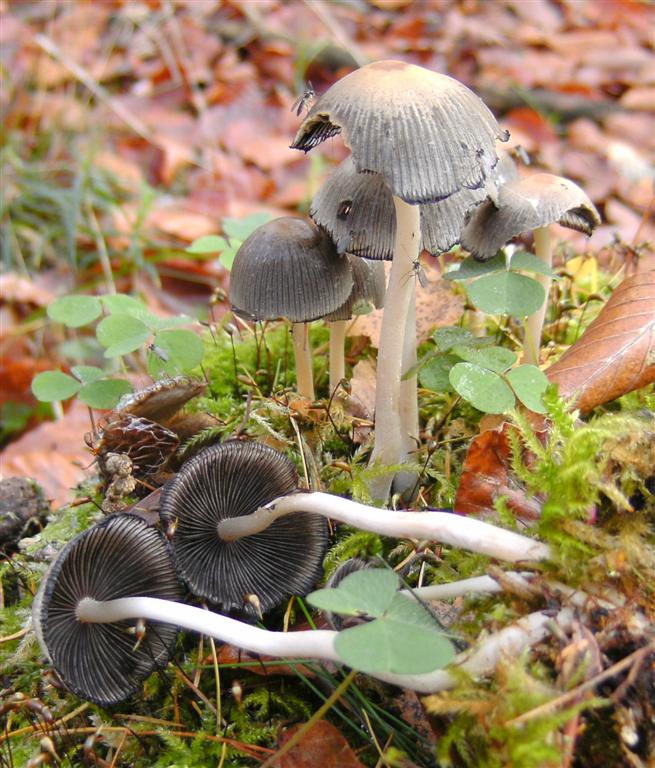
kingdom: Fungi
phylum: Basidiomycota
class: Agaricomycetes
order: Agaricales
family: Psathyrellaceae
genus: Coprinellus
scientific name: Coprinellus micaceus
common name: glimmer-blækhat
